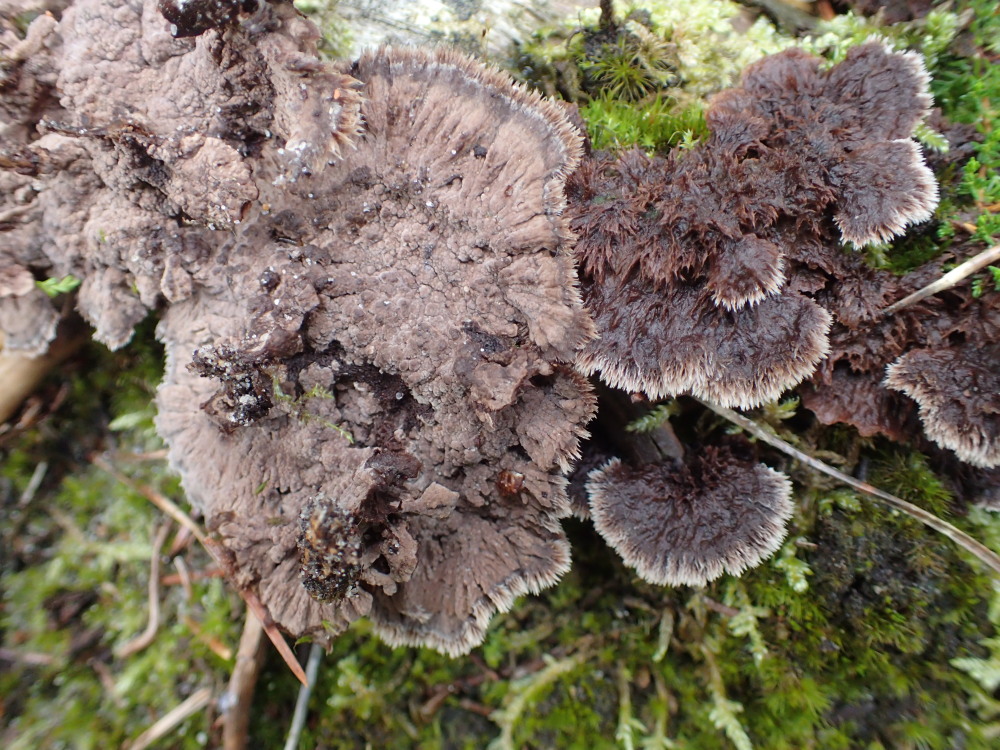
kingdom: Fungi
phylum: Basidiomycota
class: Agaricomycetes
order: Thelephorales
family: Thelephoraceae
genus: Thelephora
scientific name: Thelephora terrestris
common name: fliget frynsesvamp
